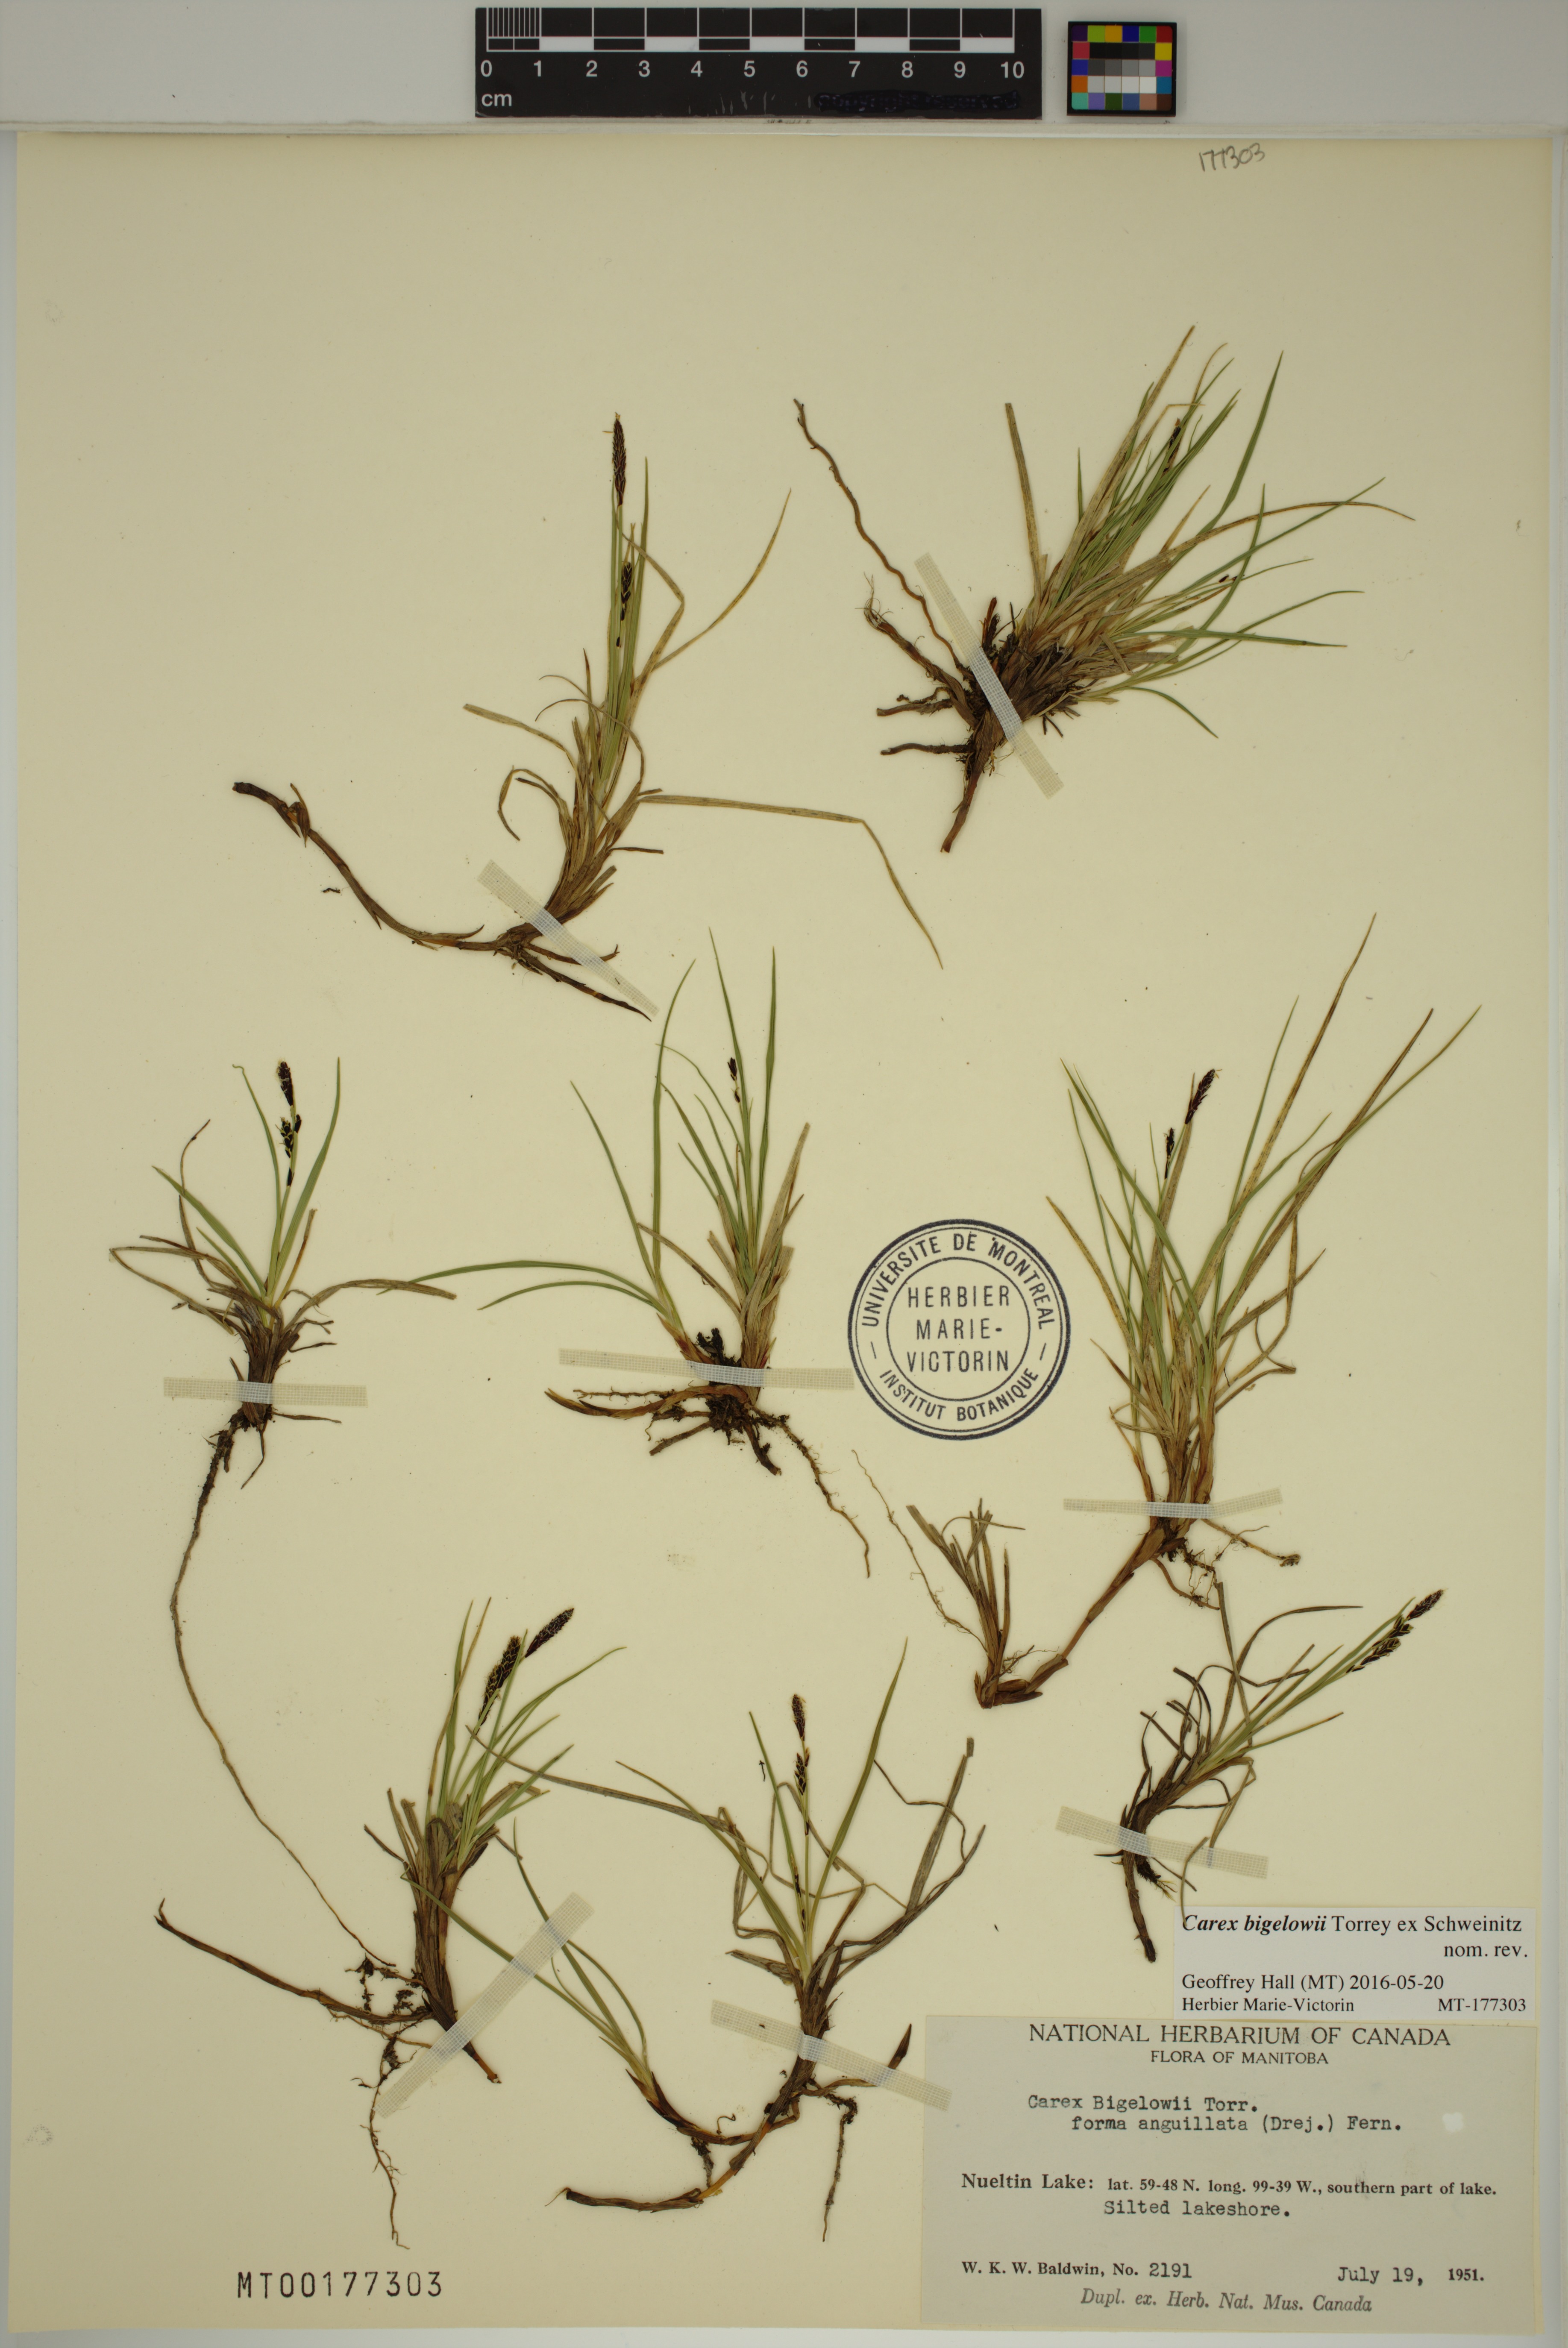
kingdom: Plantae
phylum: Tracheophyta
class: Liliopsida
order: Poales
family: Cyperaceae
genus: Carex
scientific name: Carex bigelowii
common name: Stiff sedge
